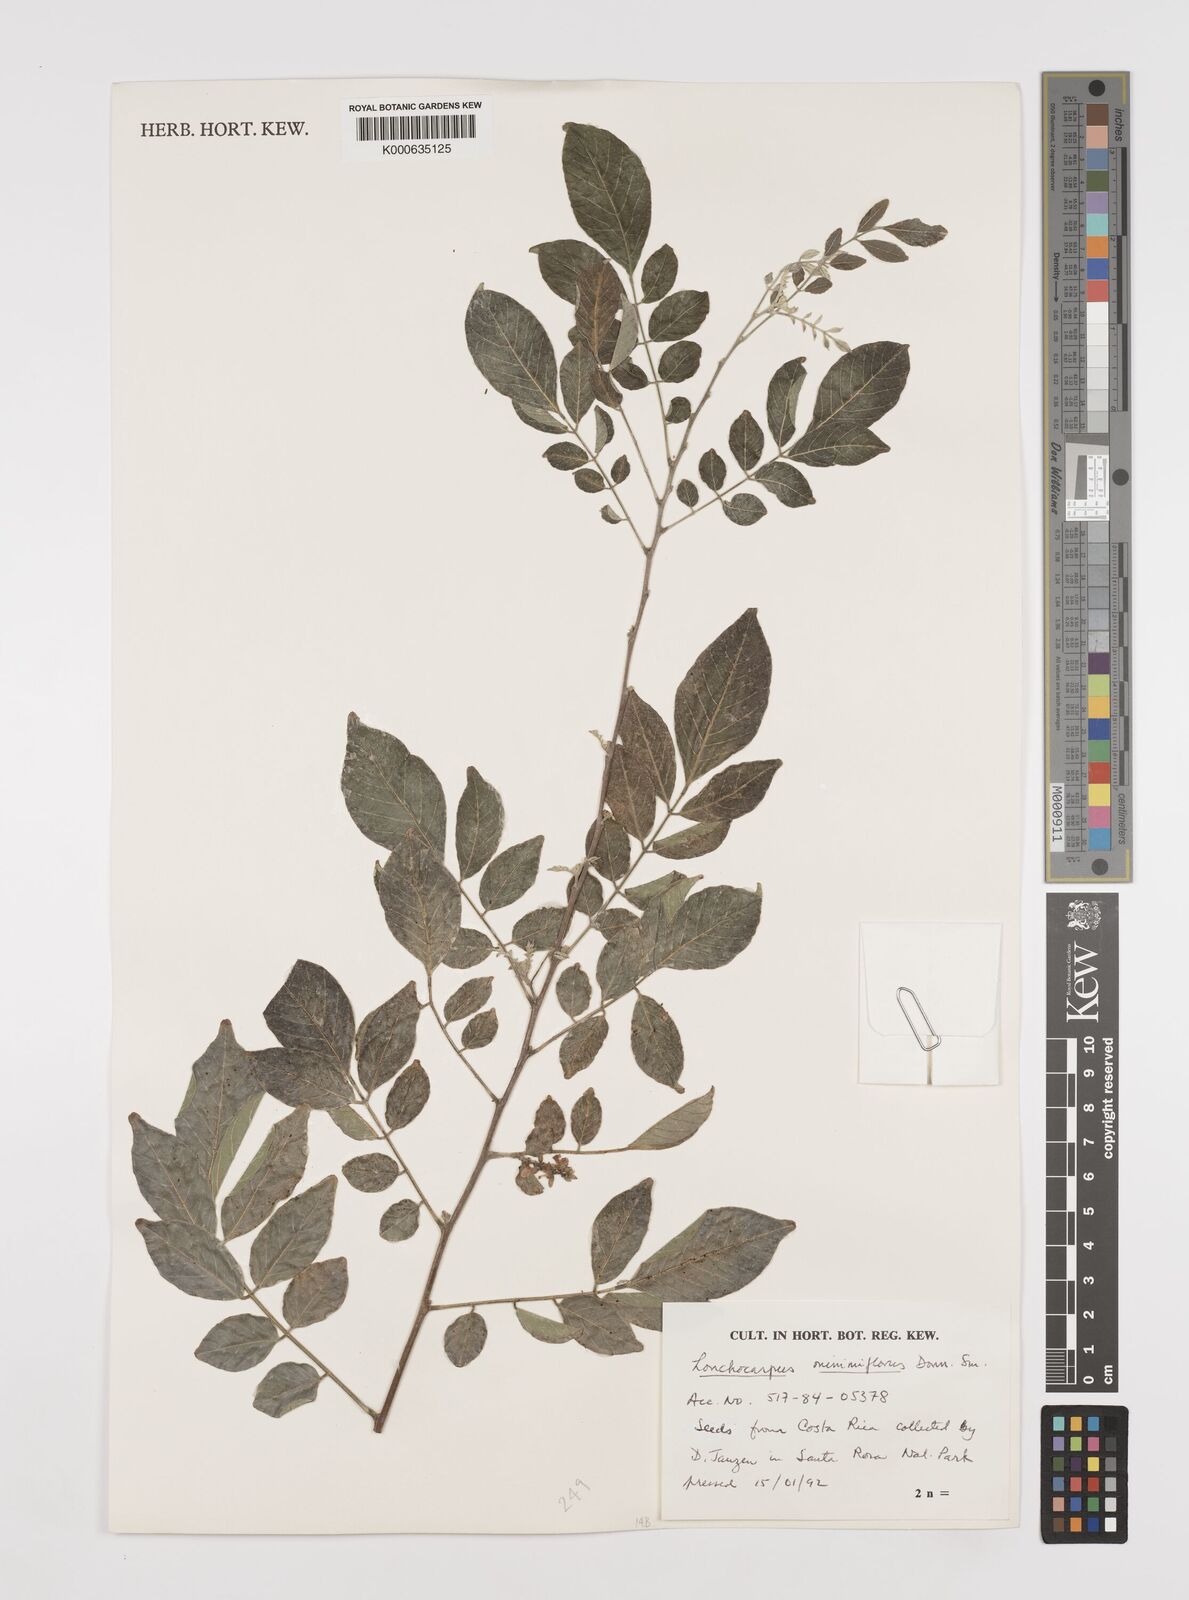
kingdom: Plantae
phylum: Tracheophyta
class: Magnoliopsida
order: Fabales
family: Fabaceae
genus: Lonchocarpus
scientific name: Lonchocarpus minimiflorus
